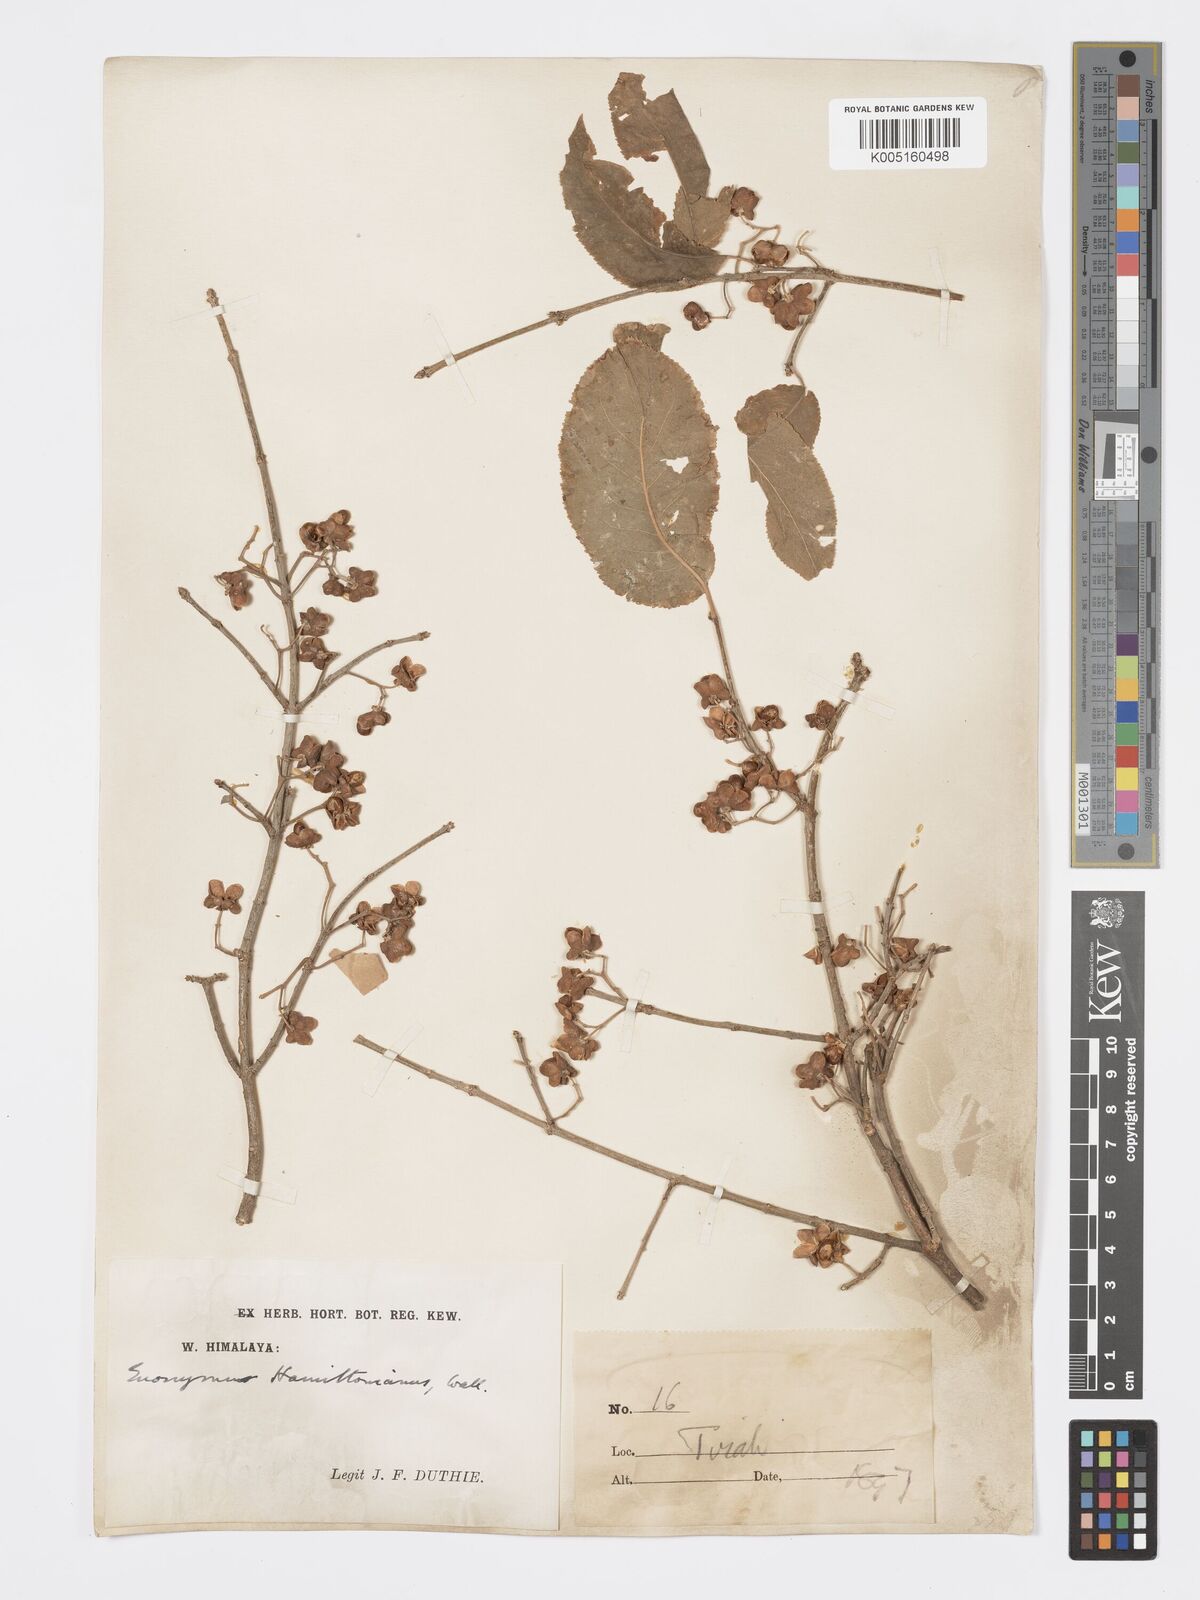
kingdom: Plantae
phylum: Tracheophyta
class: Magnoliopsida
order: Celastrales
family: Celastraceae
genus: Euonymus
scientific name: Euonymus
